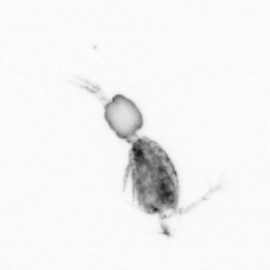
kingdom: Animalia
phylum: Arthropoda
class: Copepoda
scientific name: Copepoda
